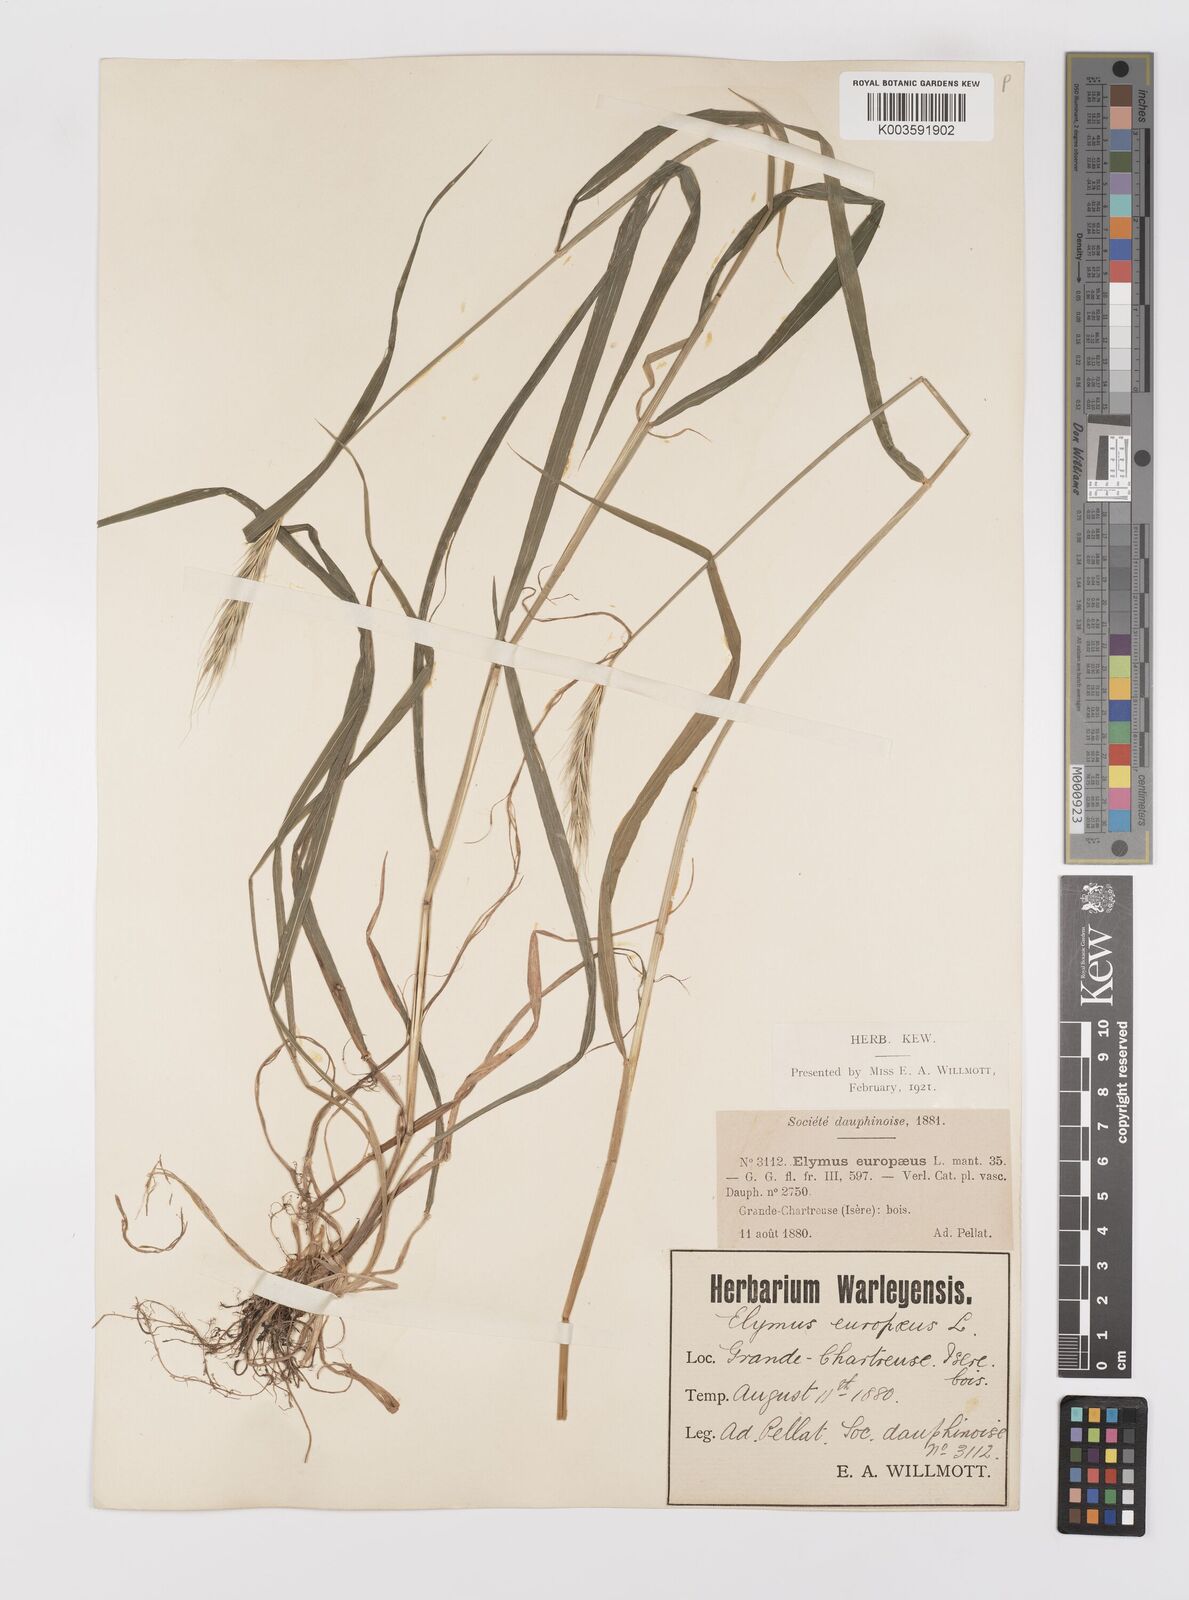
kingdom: Plantae
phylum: Tracheophyta
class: Liliopsida
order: Poales
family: Poaceae
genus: Hordelymus
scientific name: Hordelymus europaeus
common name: Wood-barley
